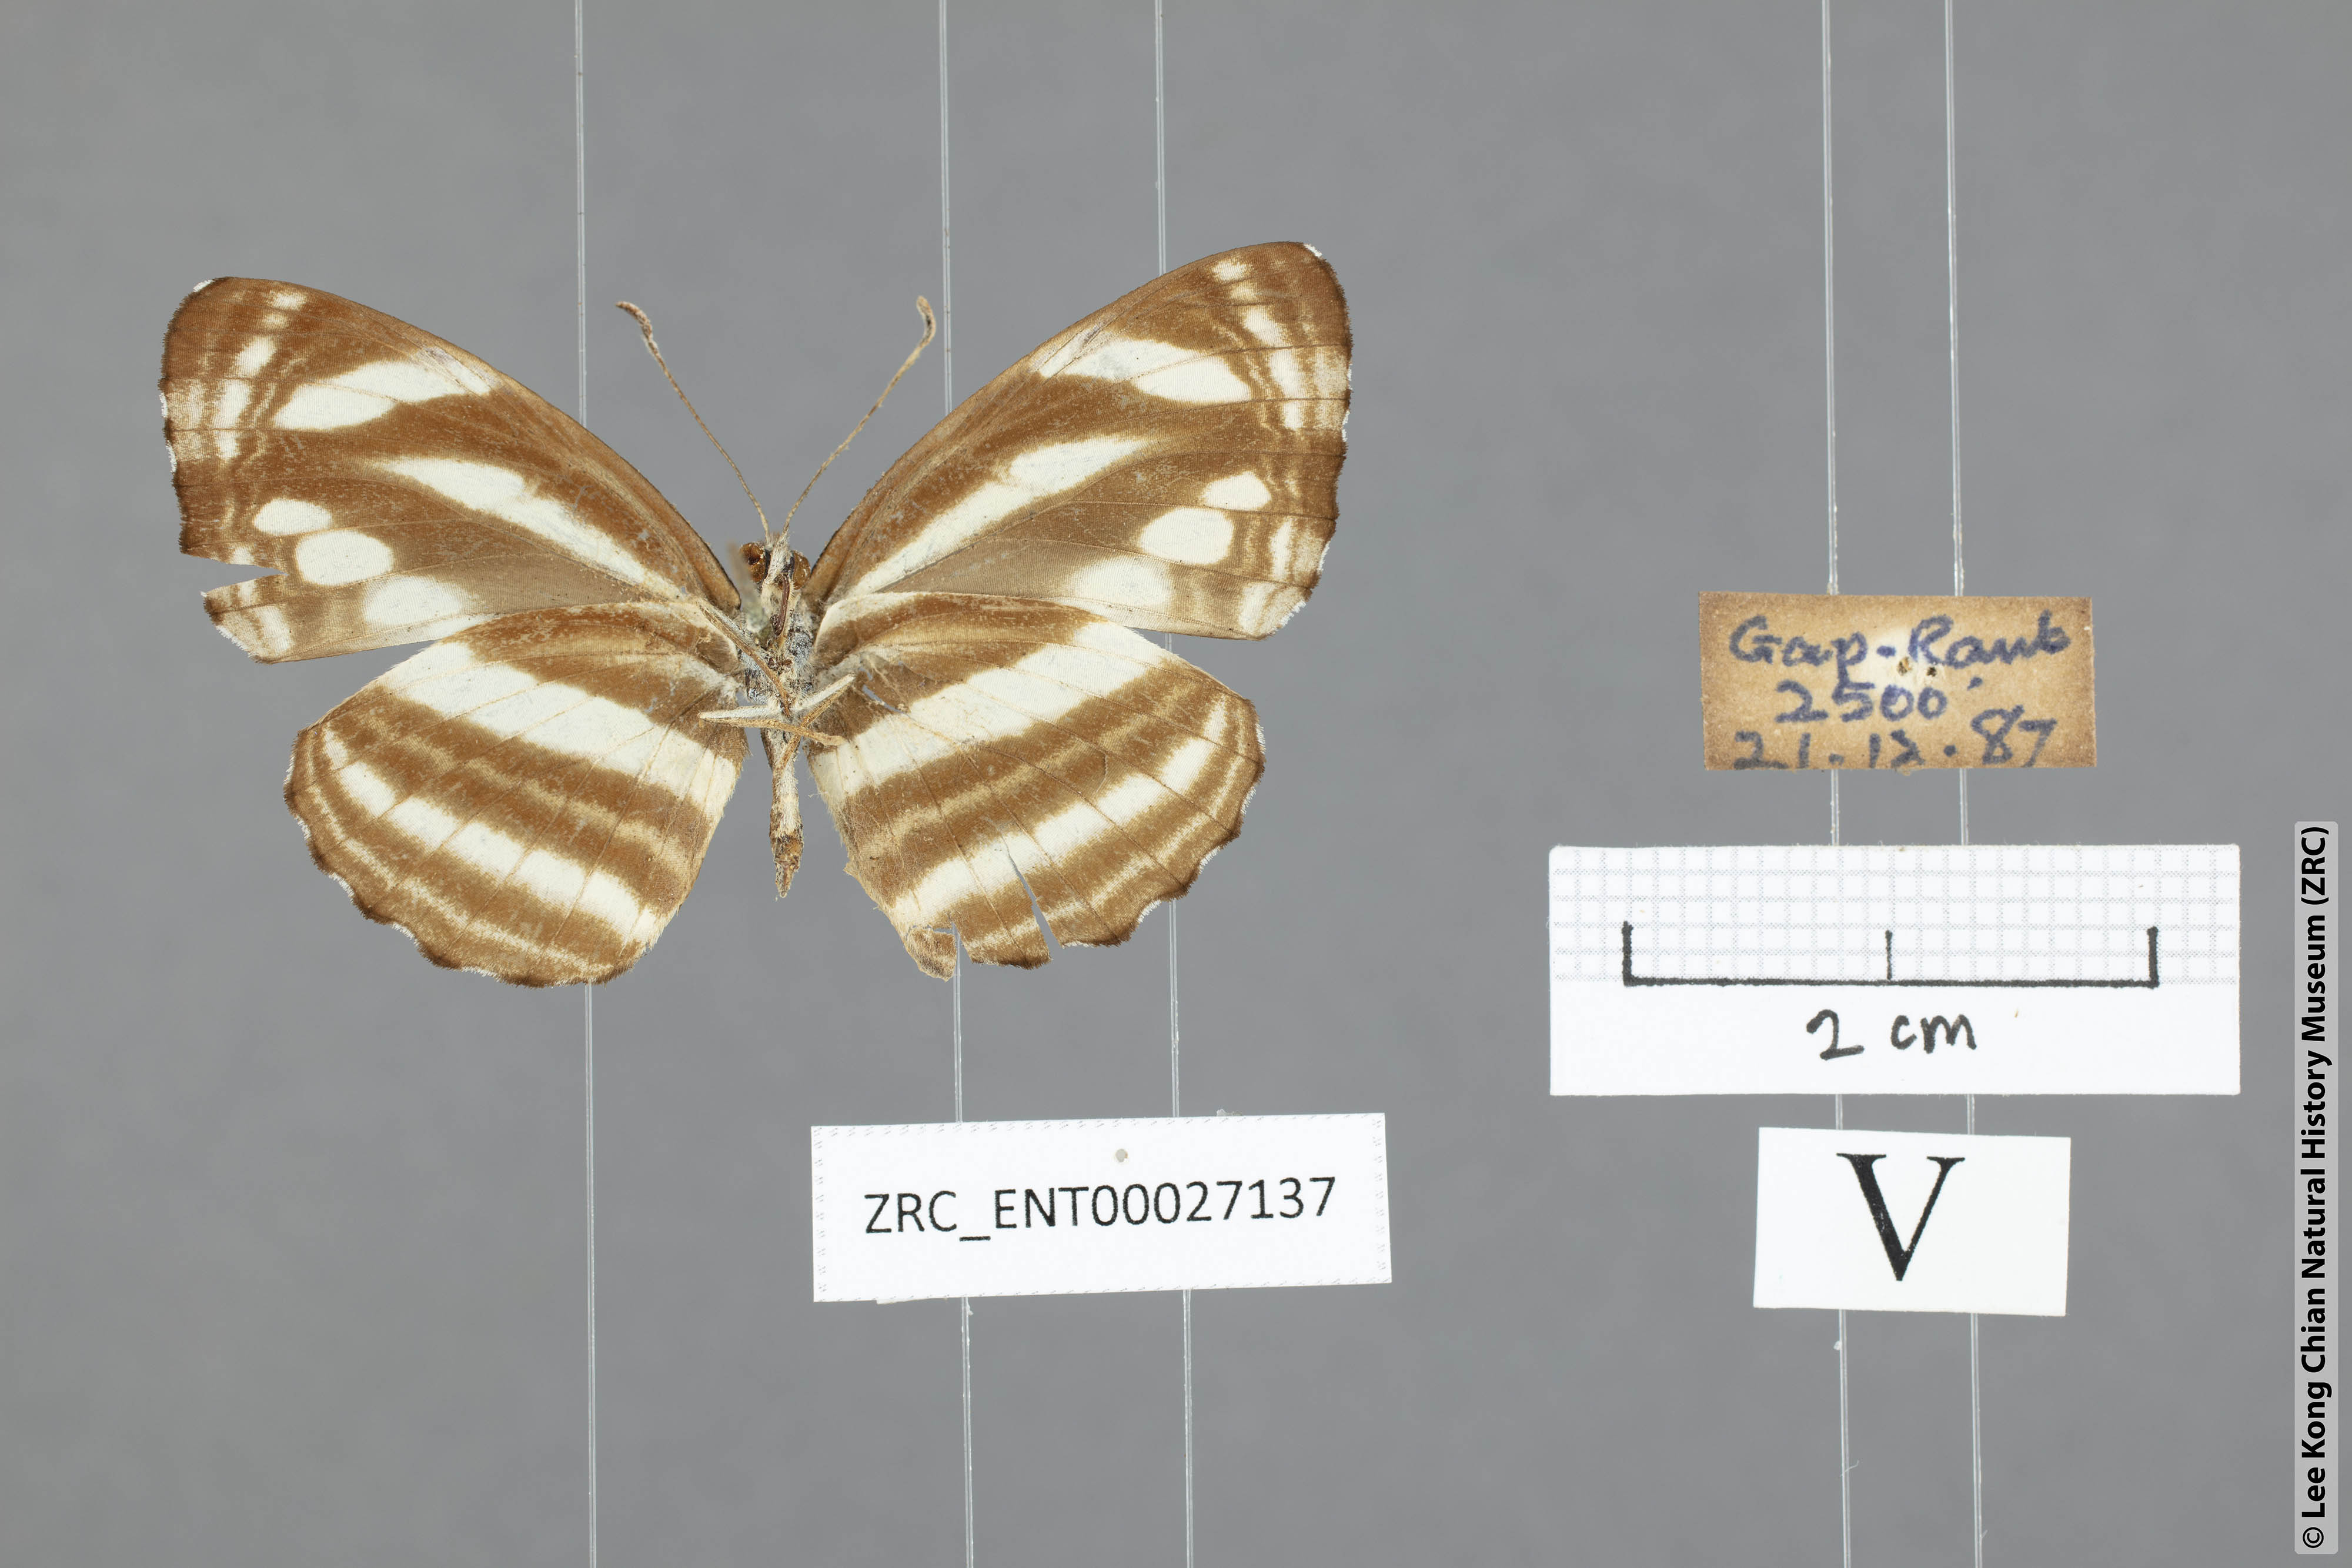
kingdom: Animalia
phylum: Arthropoda
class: Insecta
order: Lepidoptera
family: Nymphalidae
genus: Neptis
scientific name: Neptis clinia
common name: Southern sullied sailer
